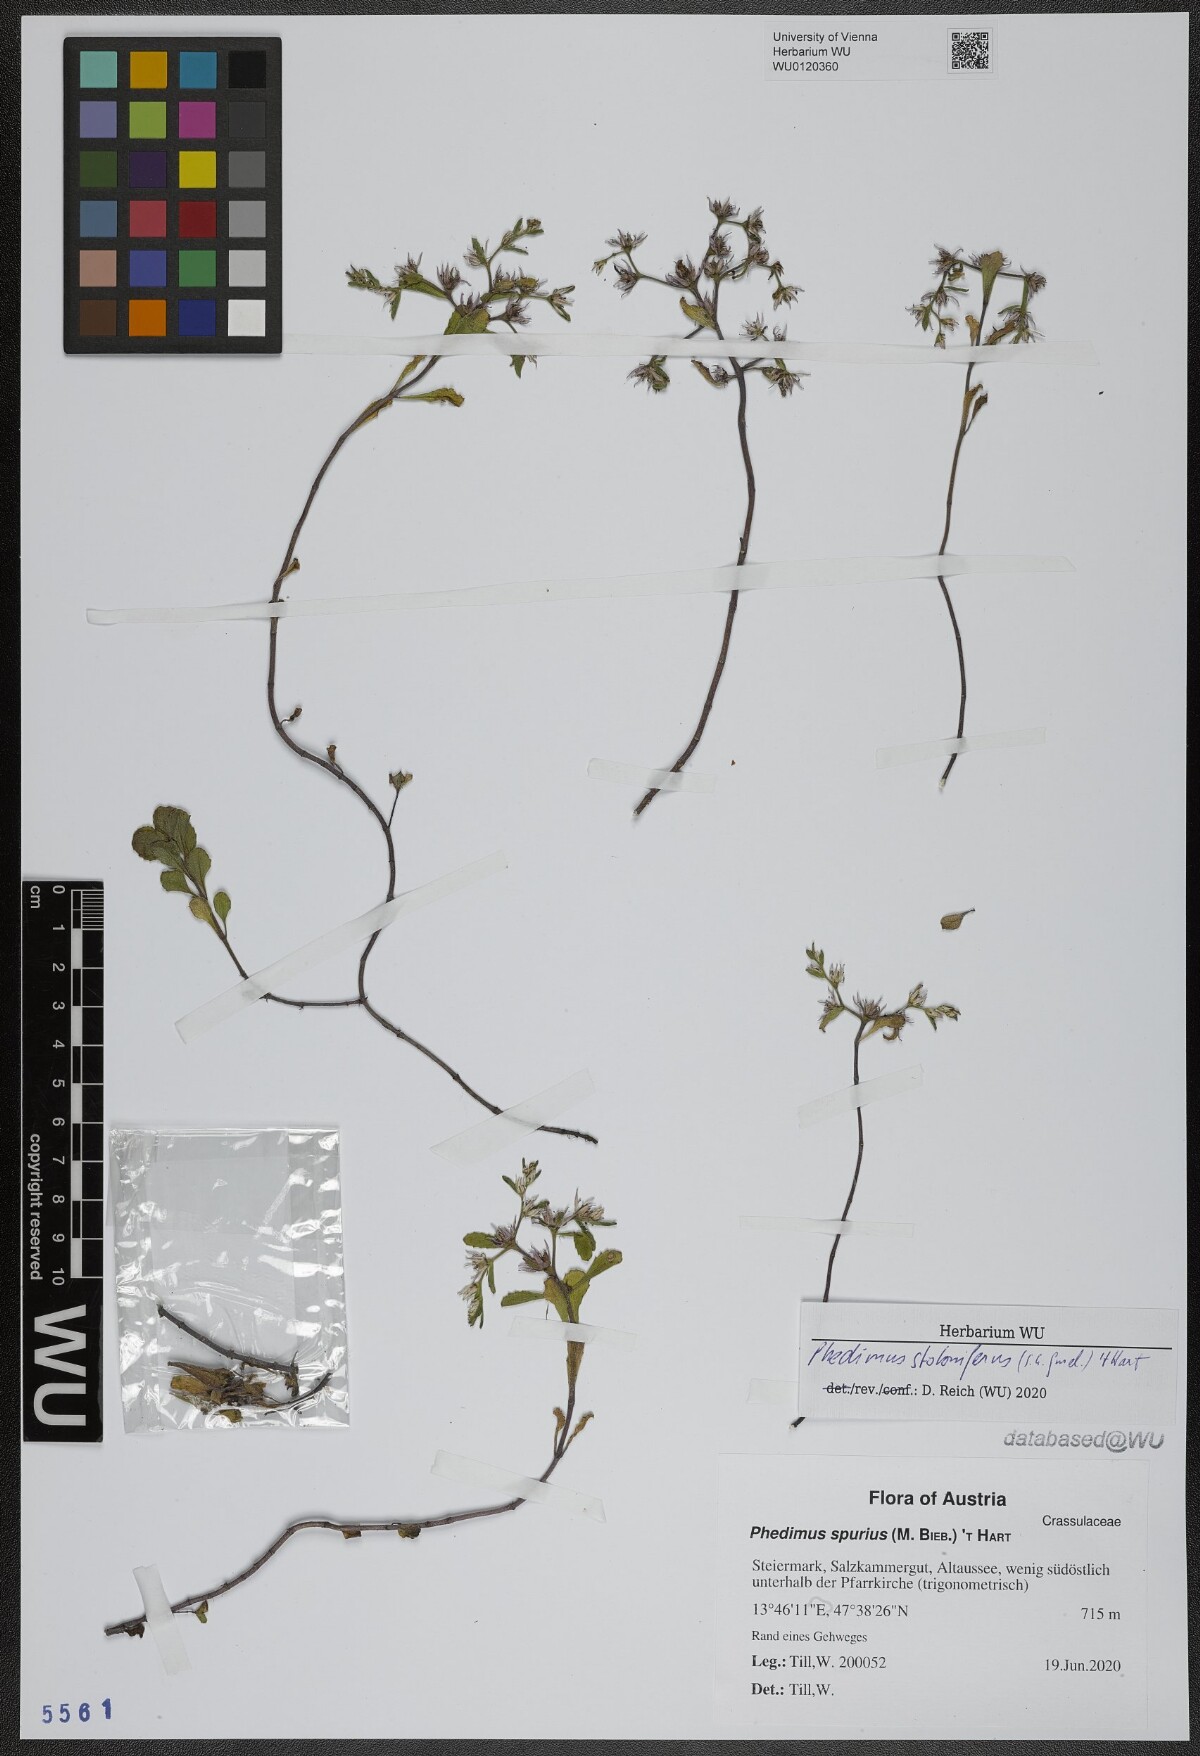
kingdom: Plantae
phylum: Tracheophyta
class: Magnoliopsida
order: Saxifragales
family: Crassulaceae
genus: Phedimus
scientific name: Phedimus stoloniferus
